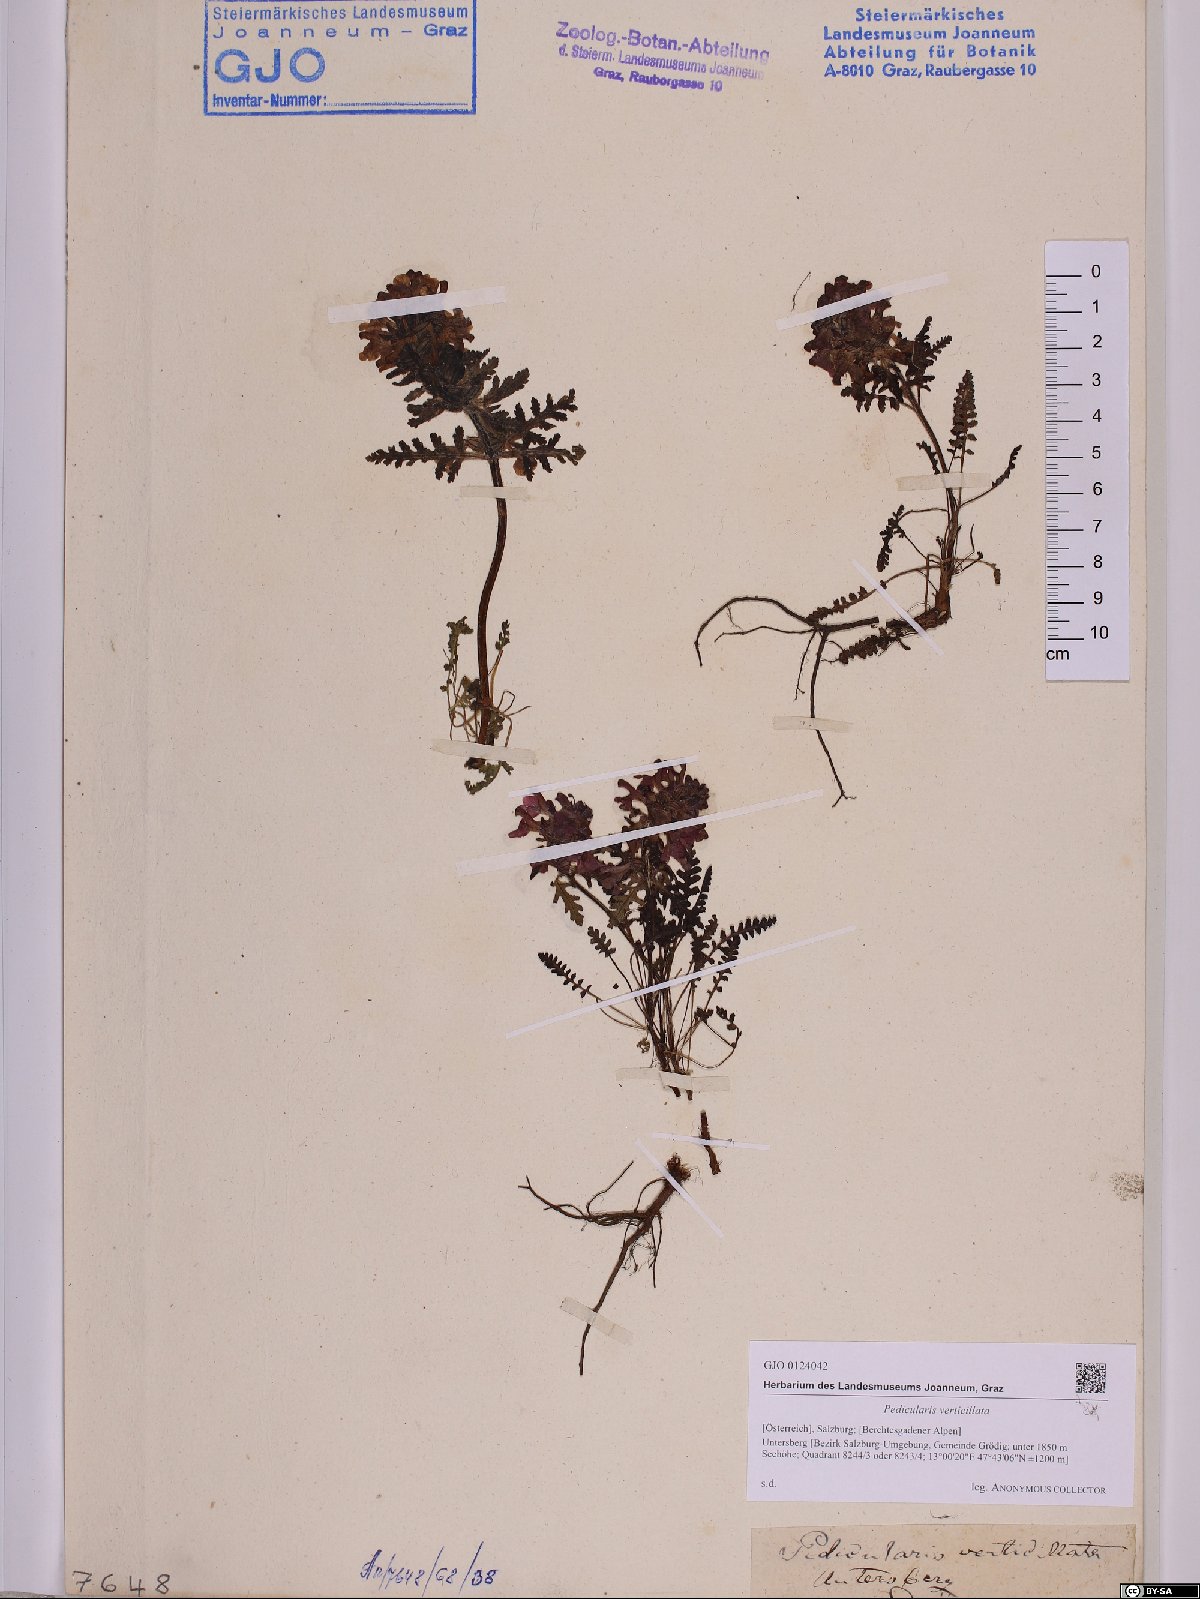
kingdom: Plantae
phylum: Tracheophyta
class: Magnoliopsida
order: Lamiales
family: Orobanchaceae
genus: Pedicularis
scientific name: Pedicularis verticillata
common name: Whorled lousewort
